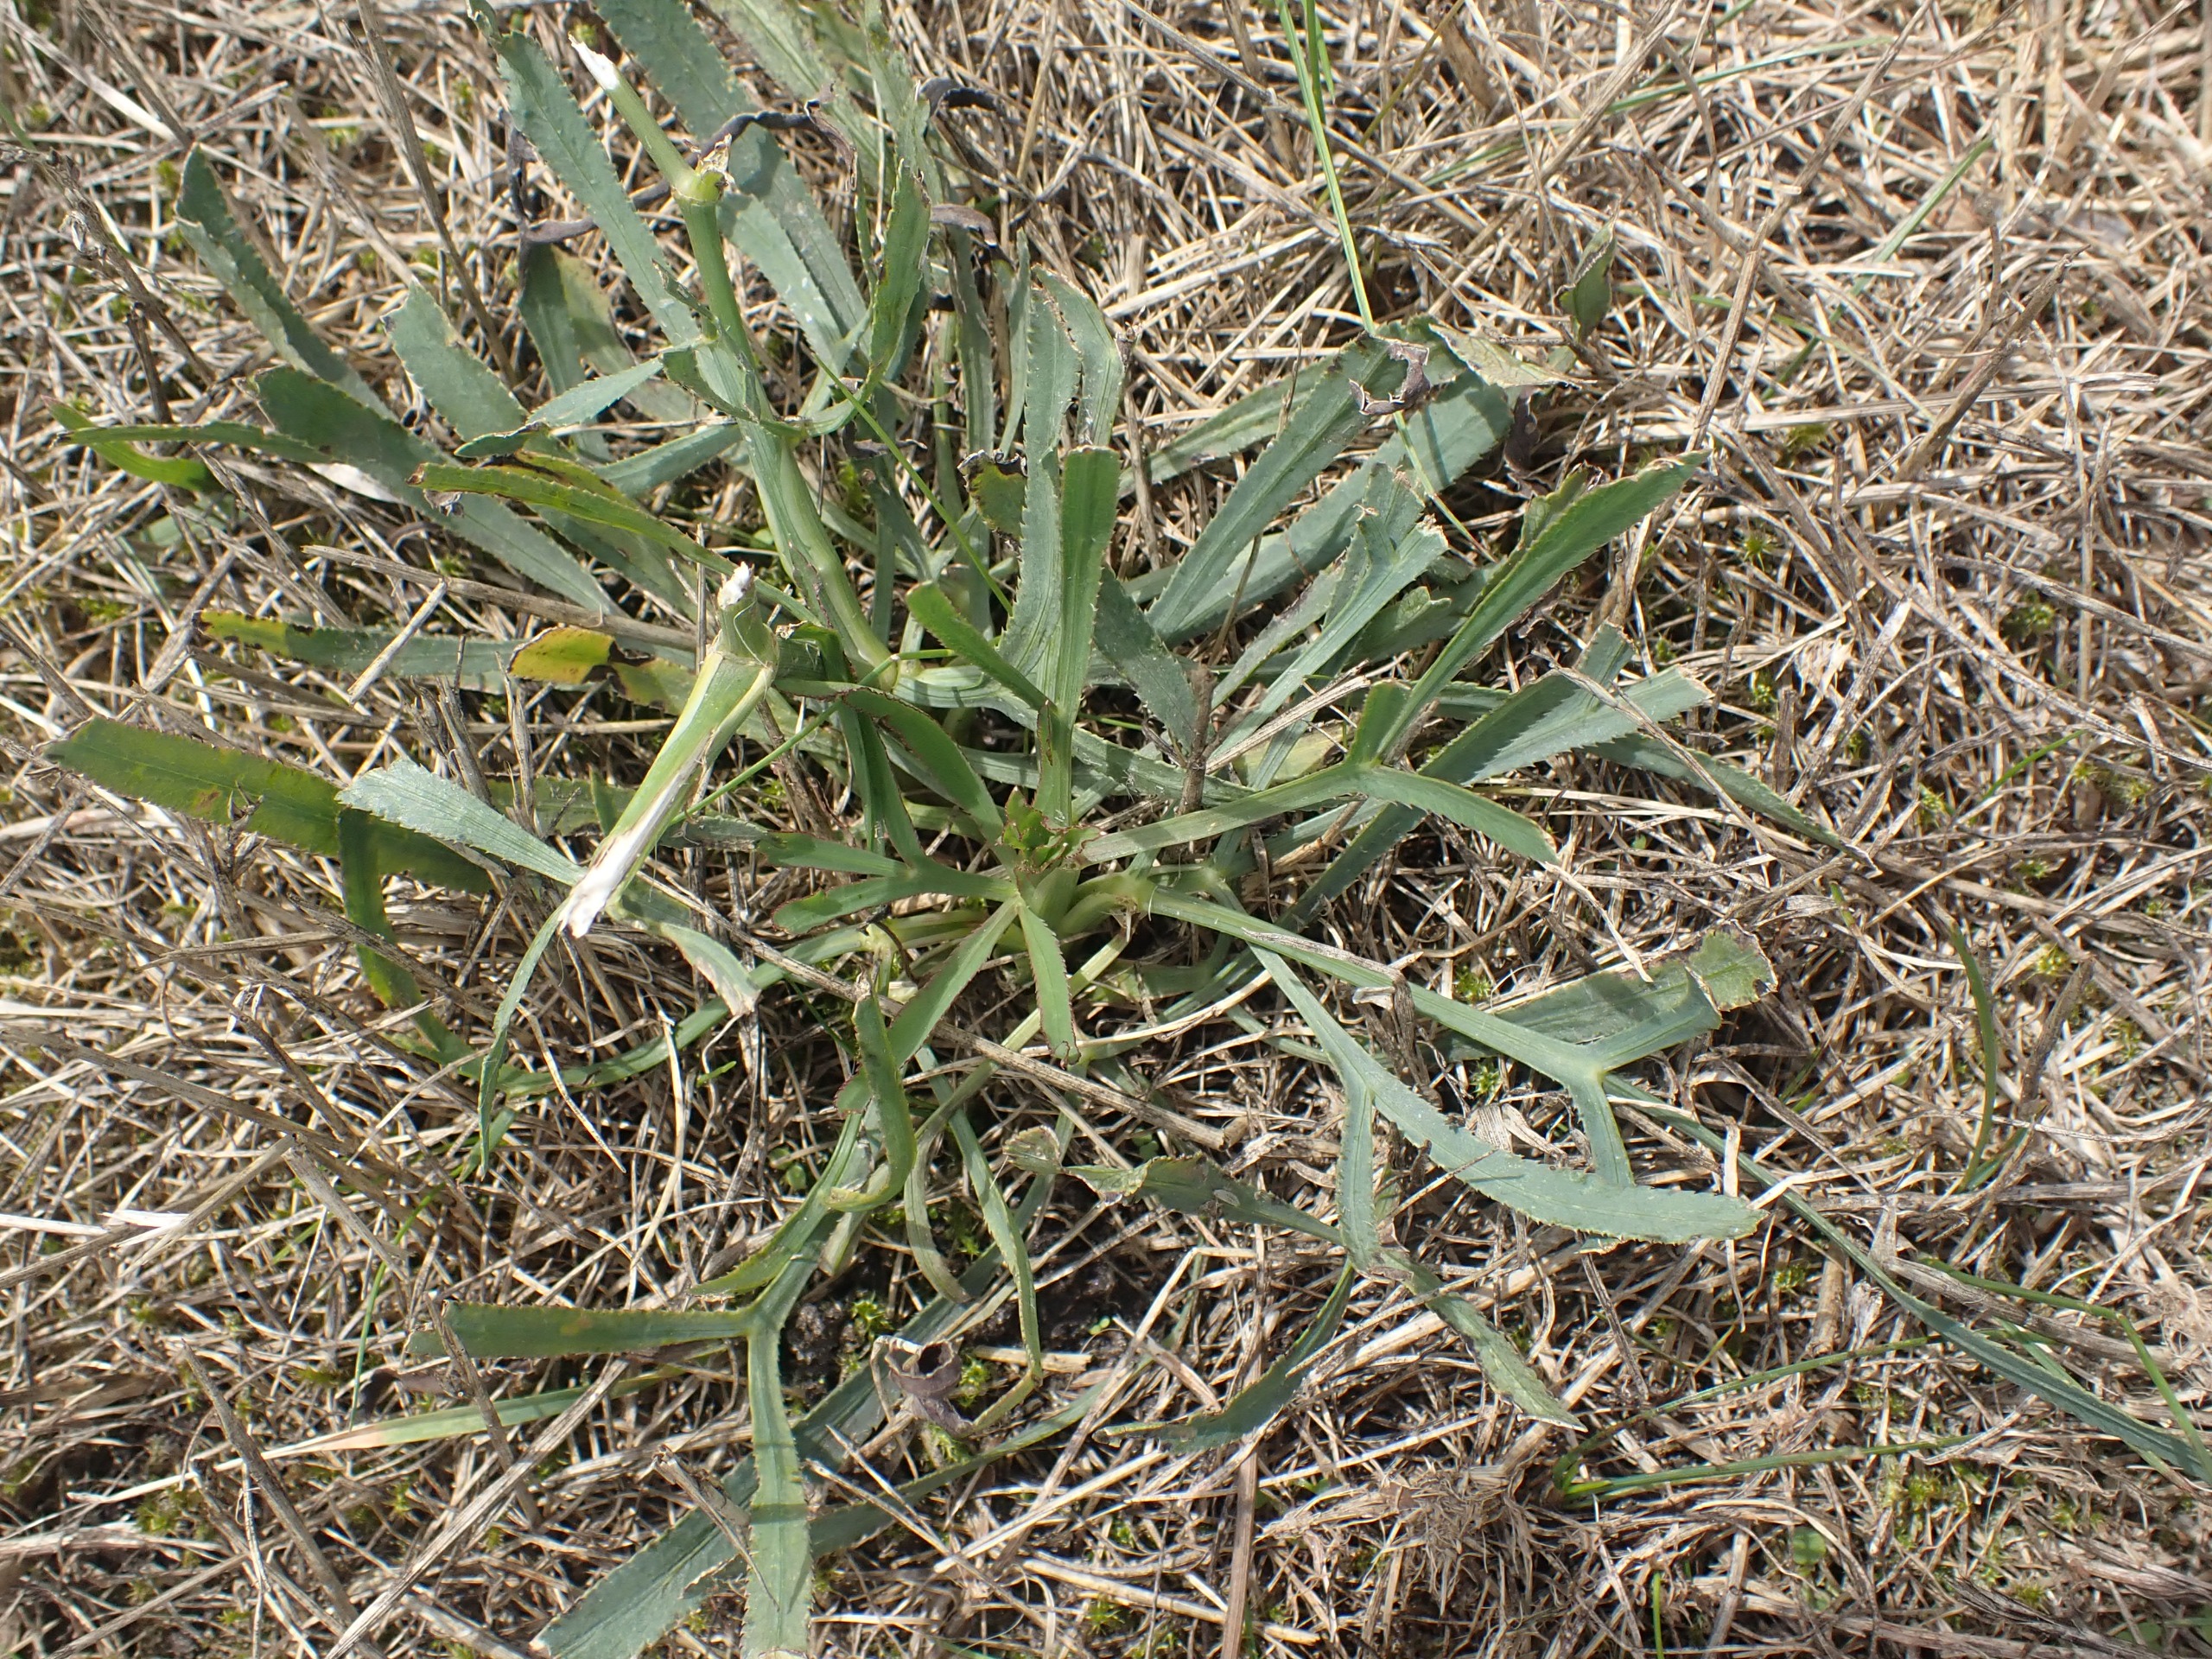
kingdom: Plantae
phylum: Tracheophyta
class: Magnoliopsida
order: Apiales
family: Apiaceae
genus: Falcaria
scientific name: Falcaria vulgaris
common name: Seglblad
